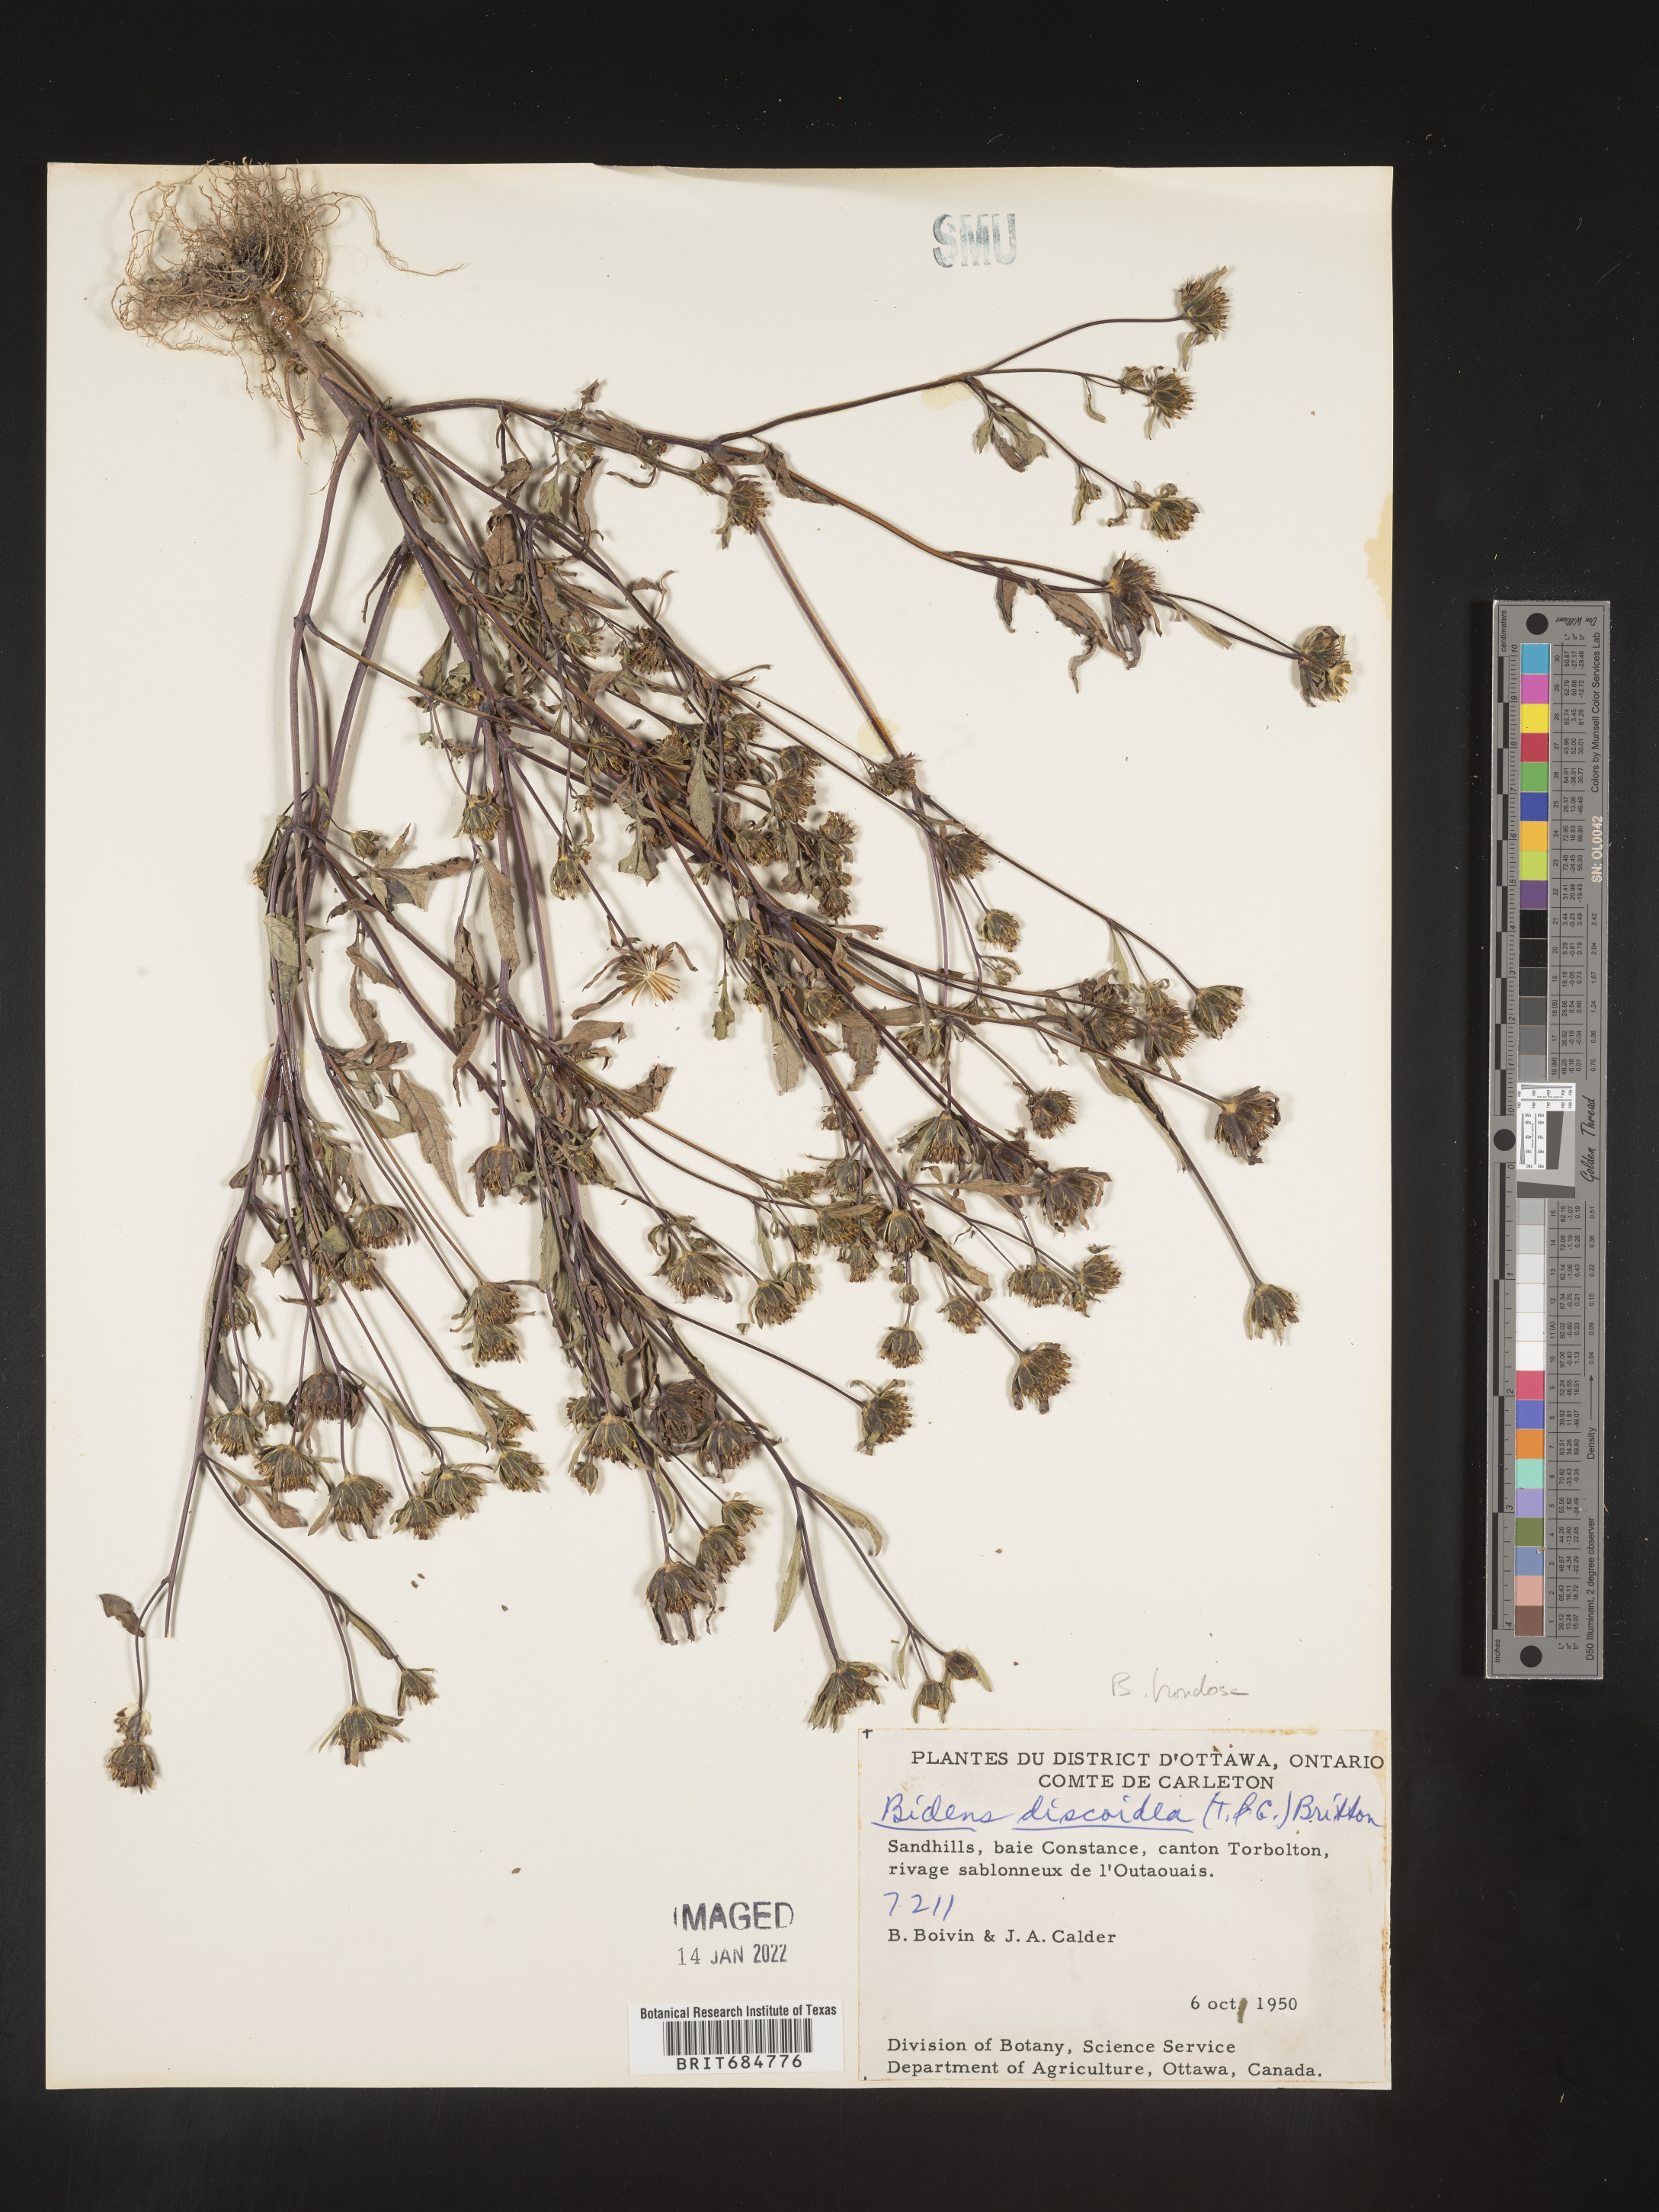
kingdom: Plantae
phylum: Tracheophyta
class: Magnoliopsida
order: Asterales
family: Asteraceae
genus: Bidens
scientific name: Bidens frondosa
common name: Beggarticks
